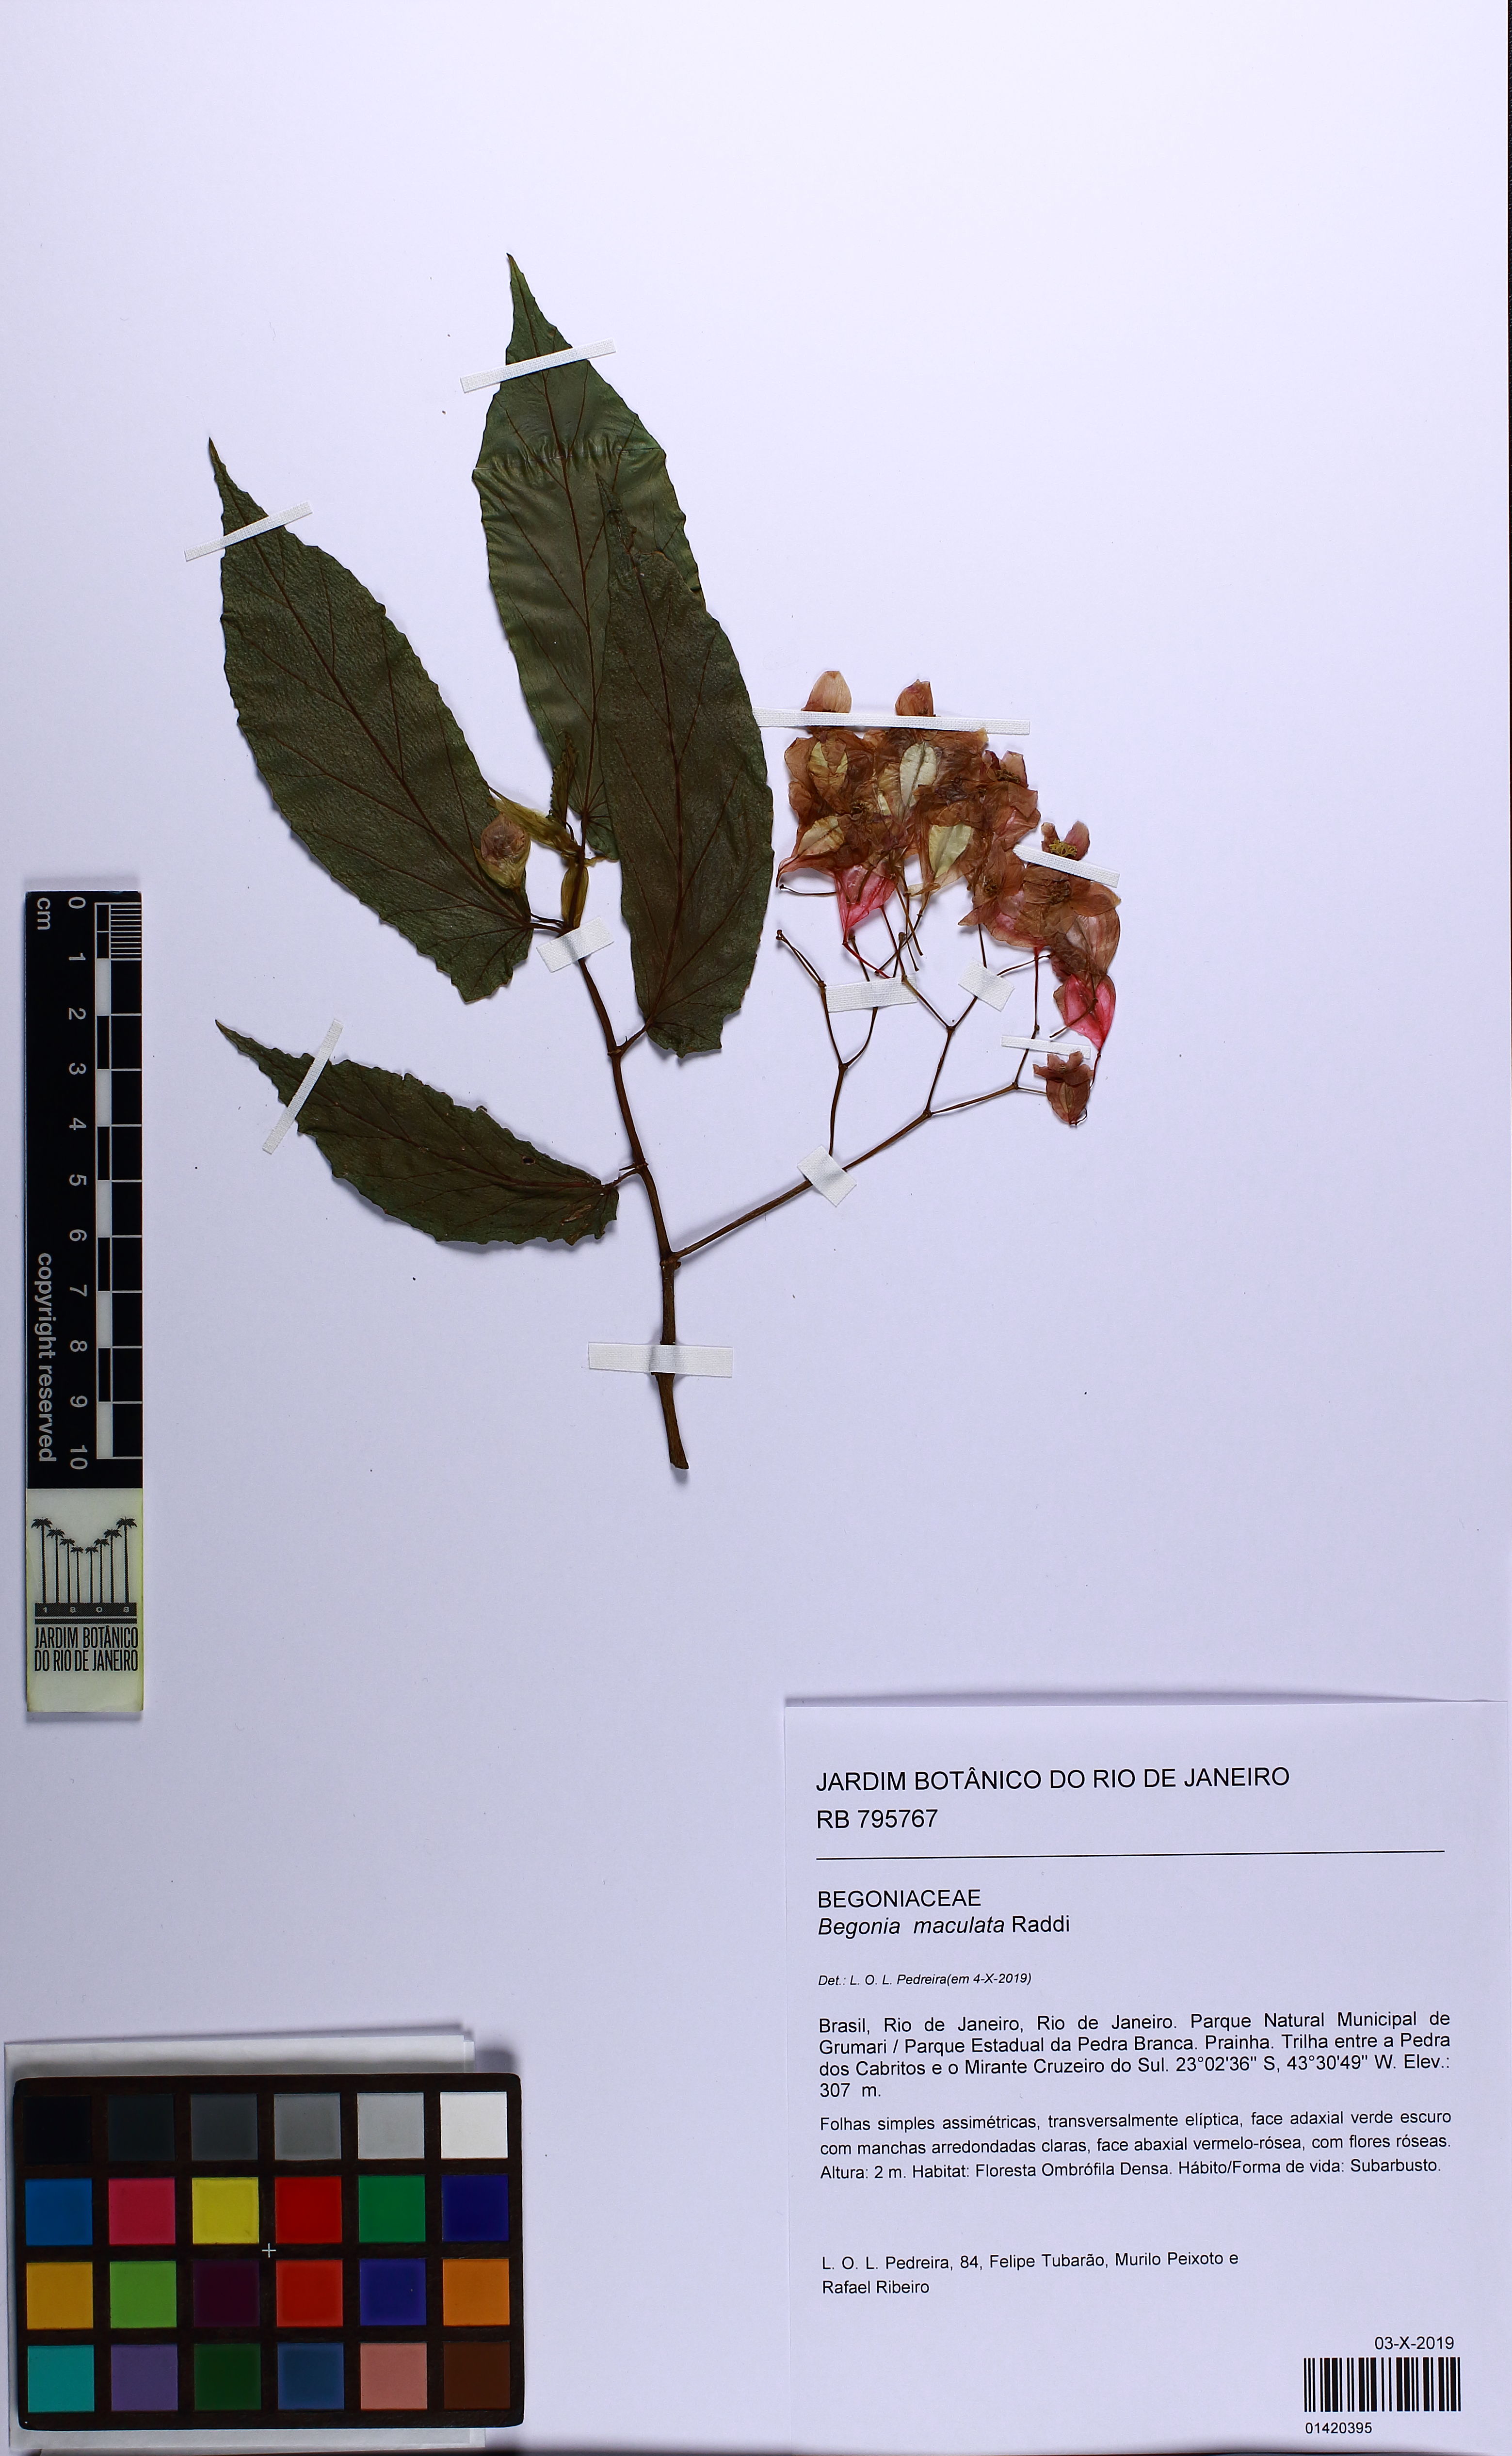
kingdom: Plantae
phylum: Tracheophyta
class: Magnoliopsida
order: Cucurbitales
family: Begoniaceae
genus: Begonia
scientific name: Begonia maculata
